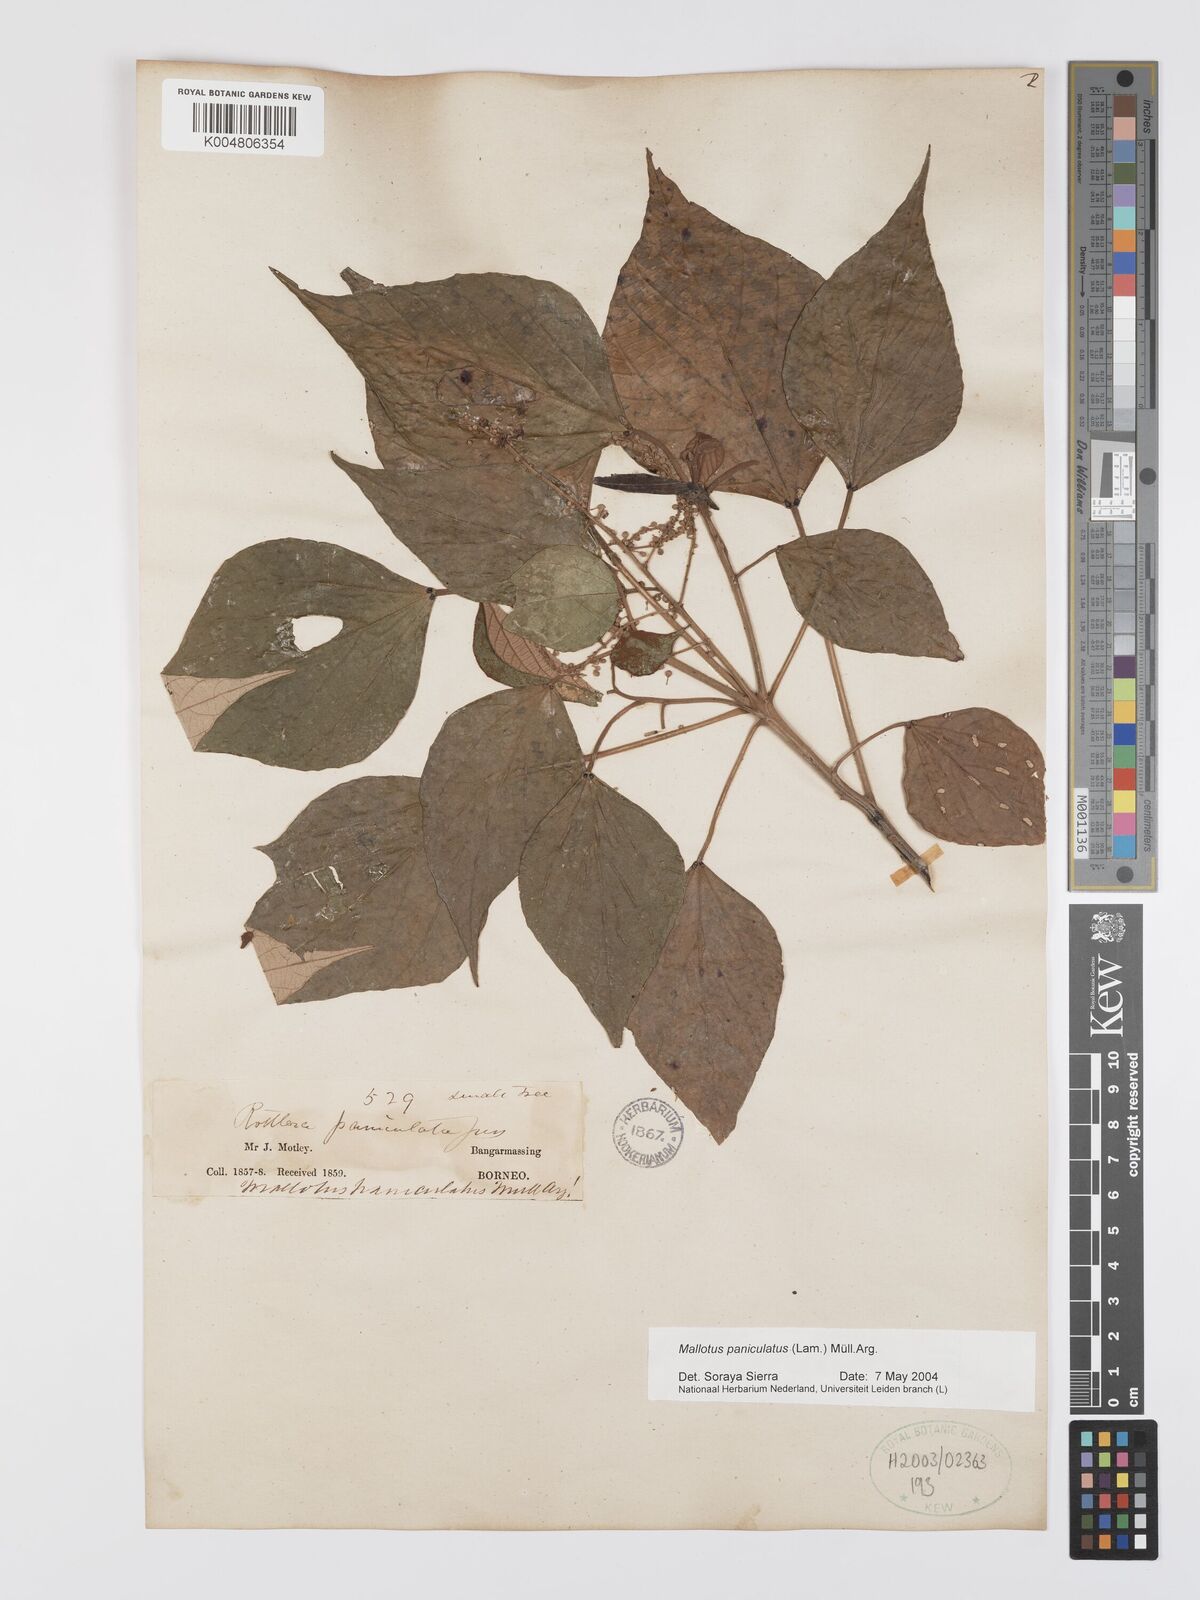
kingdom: Plantae
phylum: Tracheophyta
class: Magnoliopsida
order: Malpighiales
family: Euphorbiaceae
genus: Mallotus
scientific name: Mallotus paniculatus
